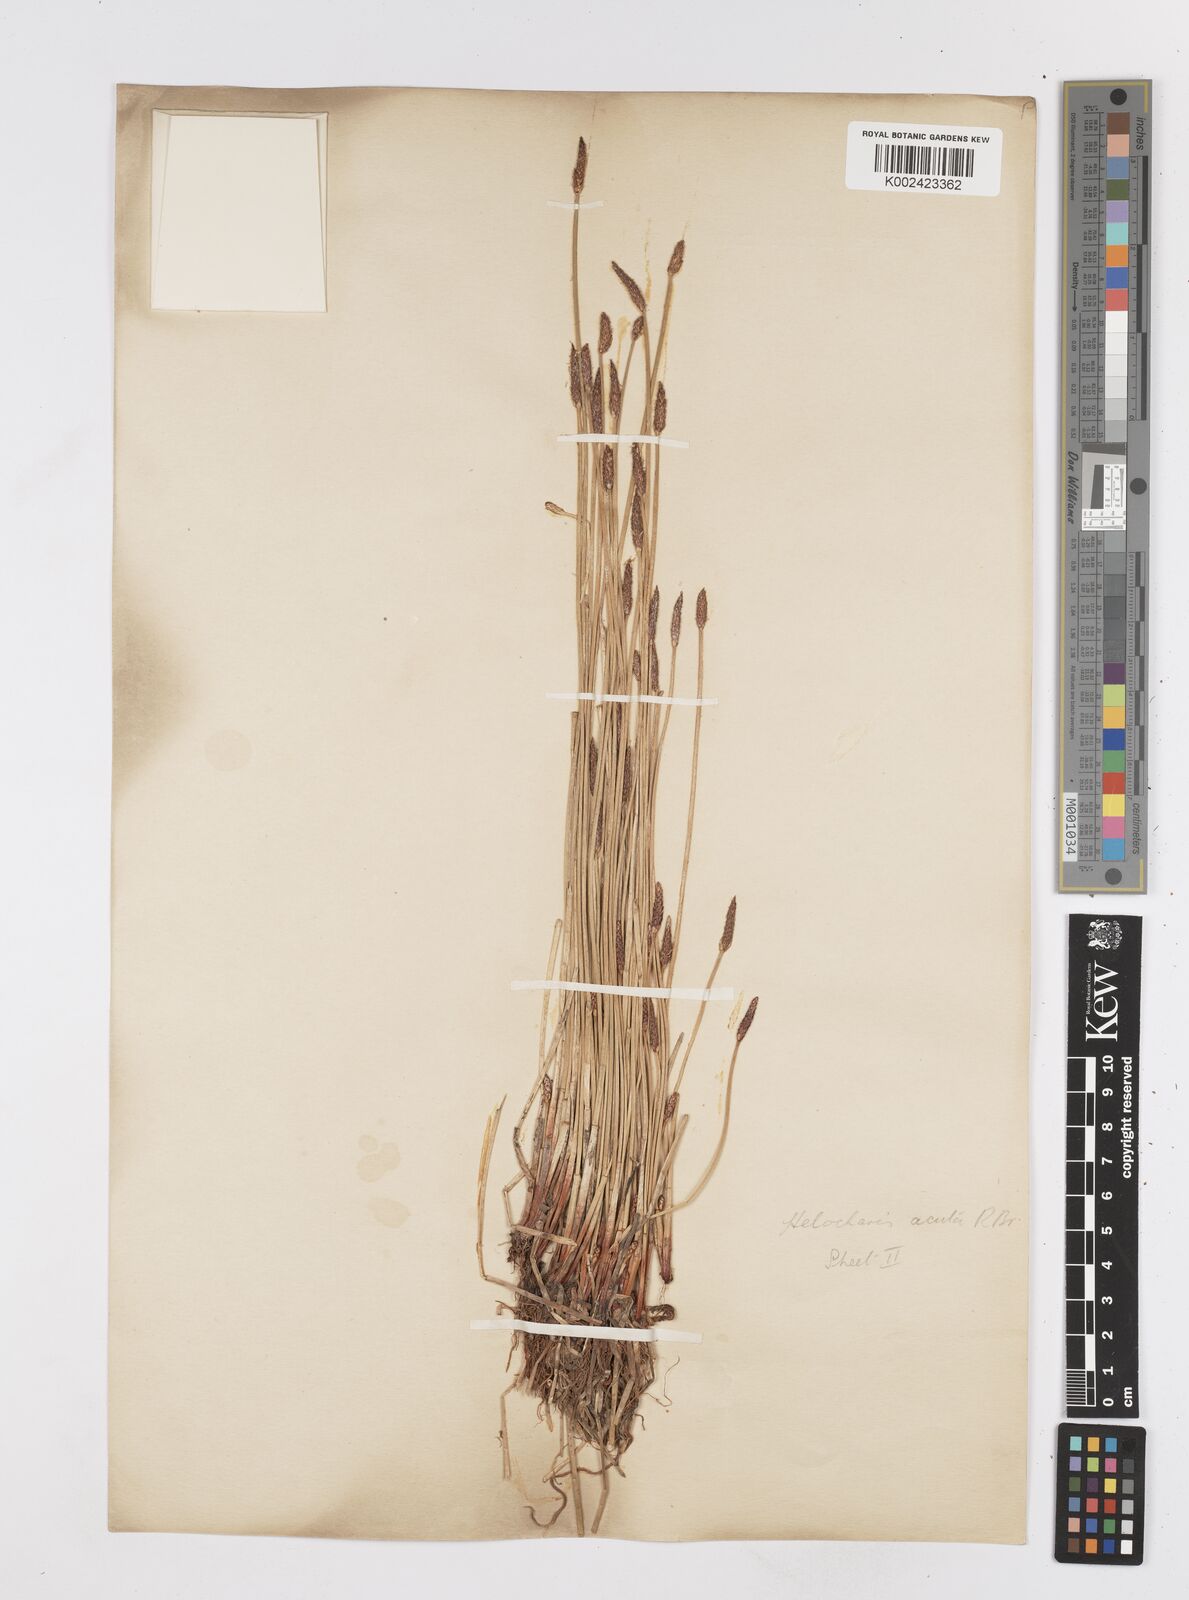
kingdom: Plantae
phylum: Tracheophyta
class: Liliopsida
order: Poales
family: Cyperaceae
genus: Eleocharis
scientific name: Eleocharis acuta
